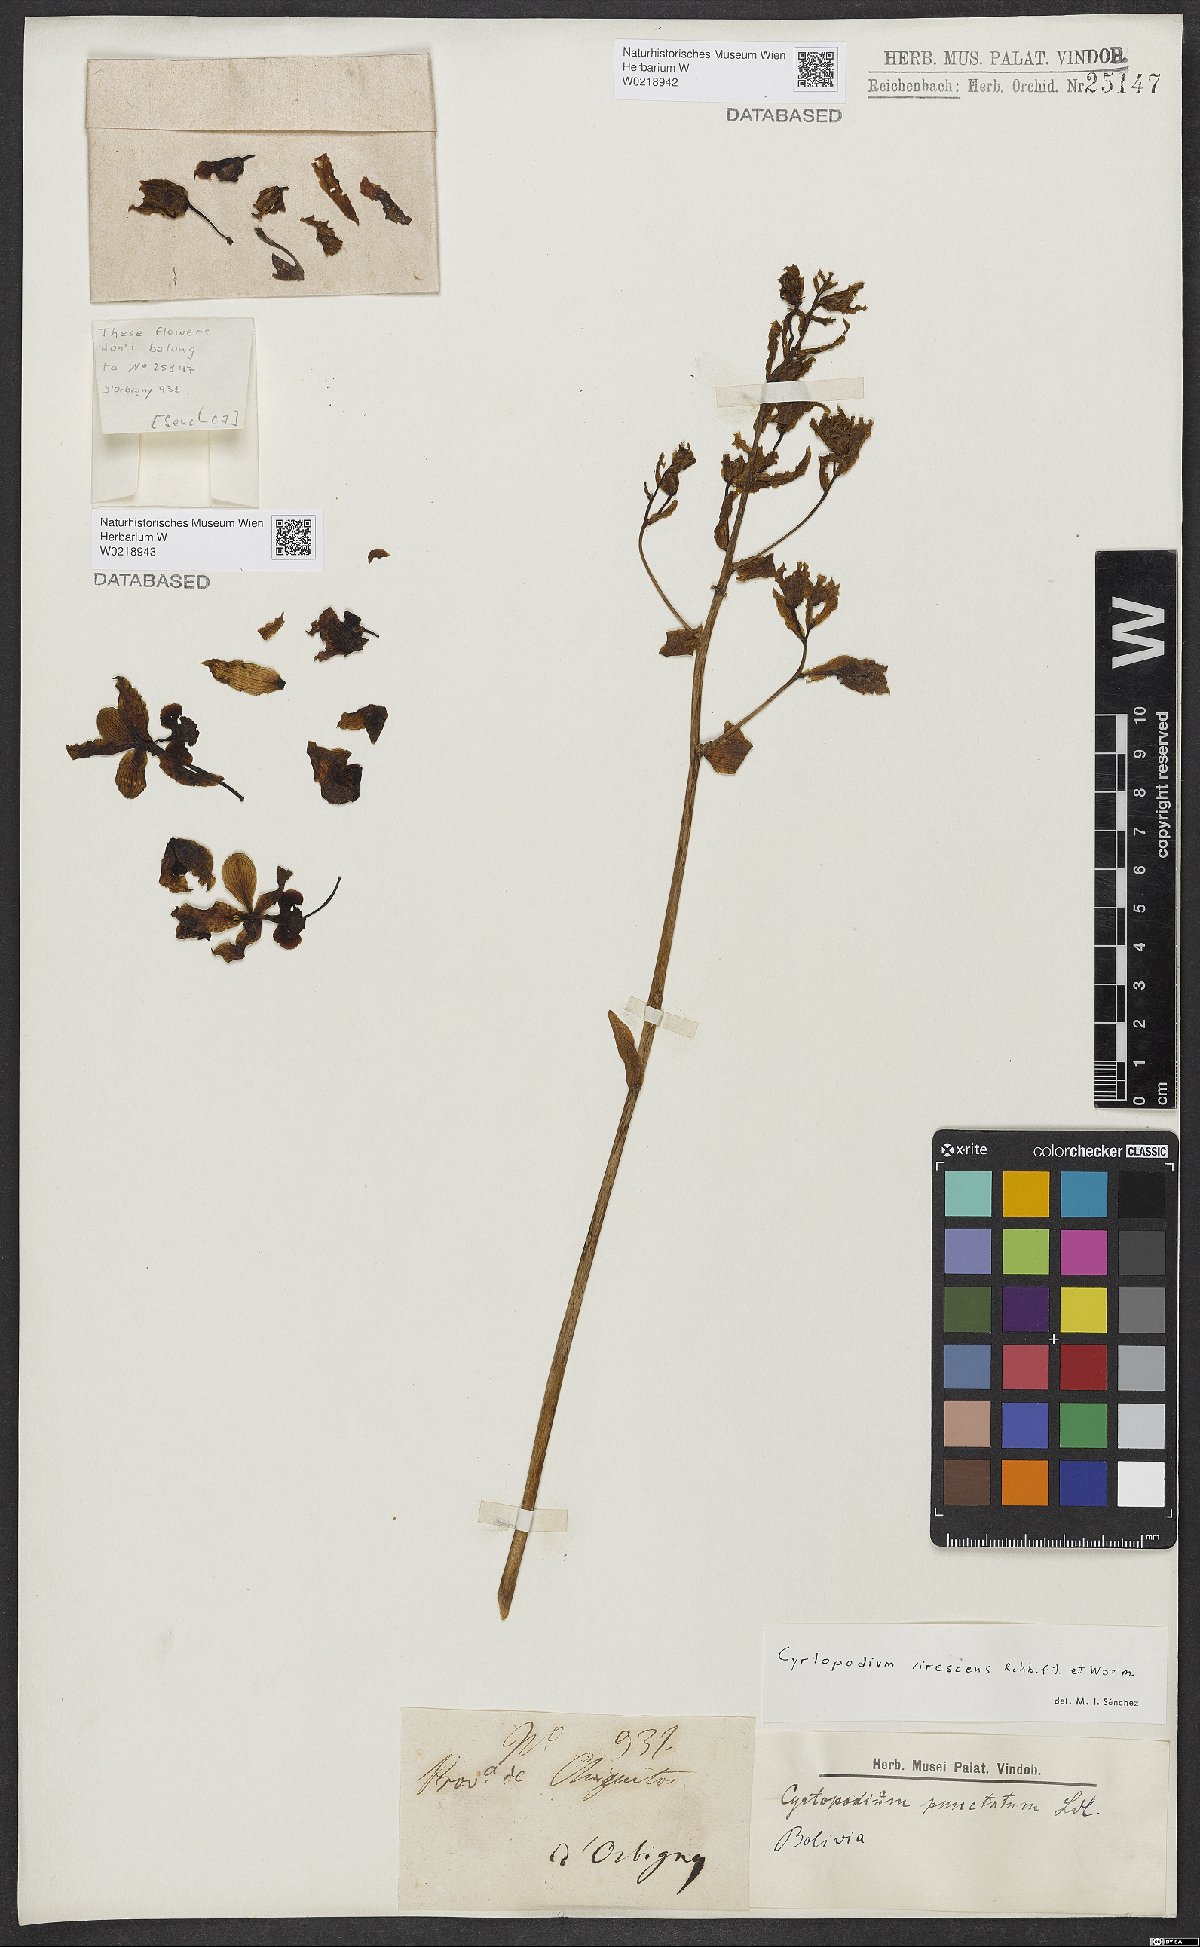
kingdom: Plantae
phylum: Tracheophyta
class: Liliopsida
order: Asparagales
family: Orchidaceae
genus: Cyrtopodium
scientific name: Cyrtopodium
